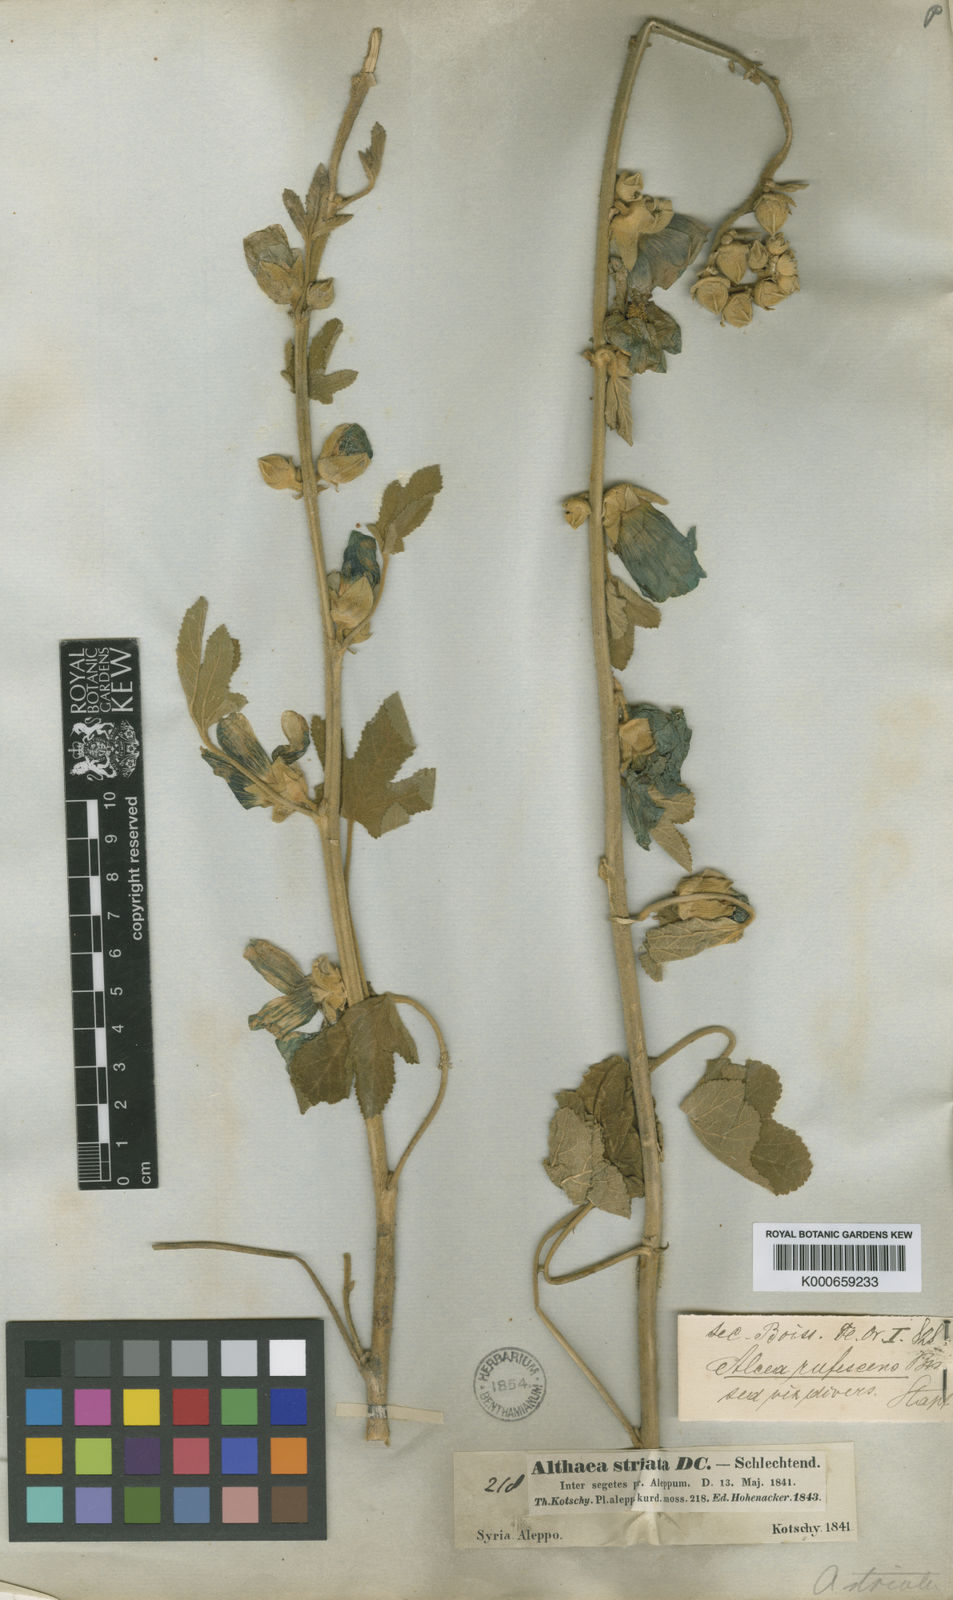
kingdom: Plantae
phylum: Tracheophyta
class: Magnoliopsida
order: Malvales
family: Malvaceae
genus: Alcea
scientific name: Alcea rufescens
